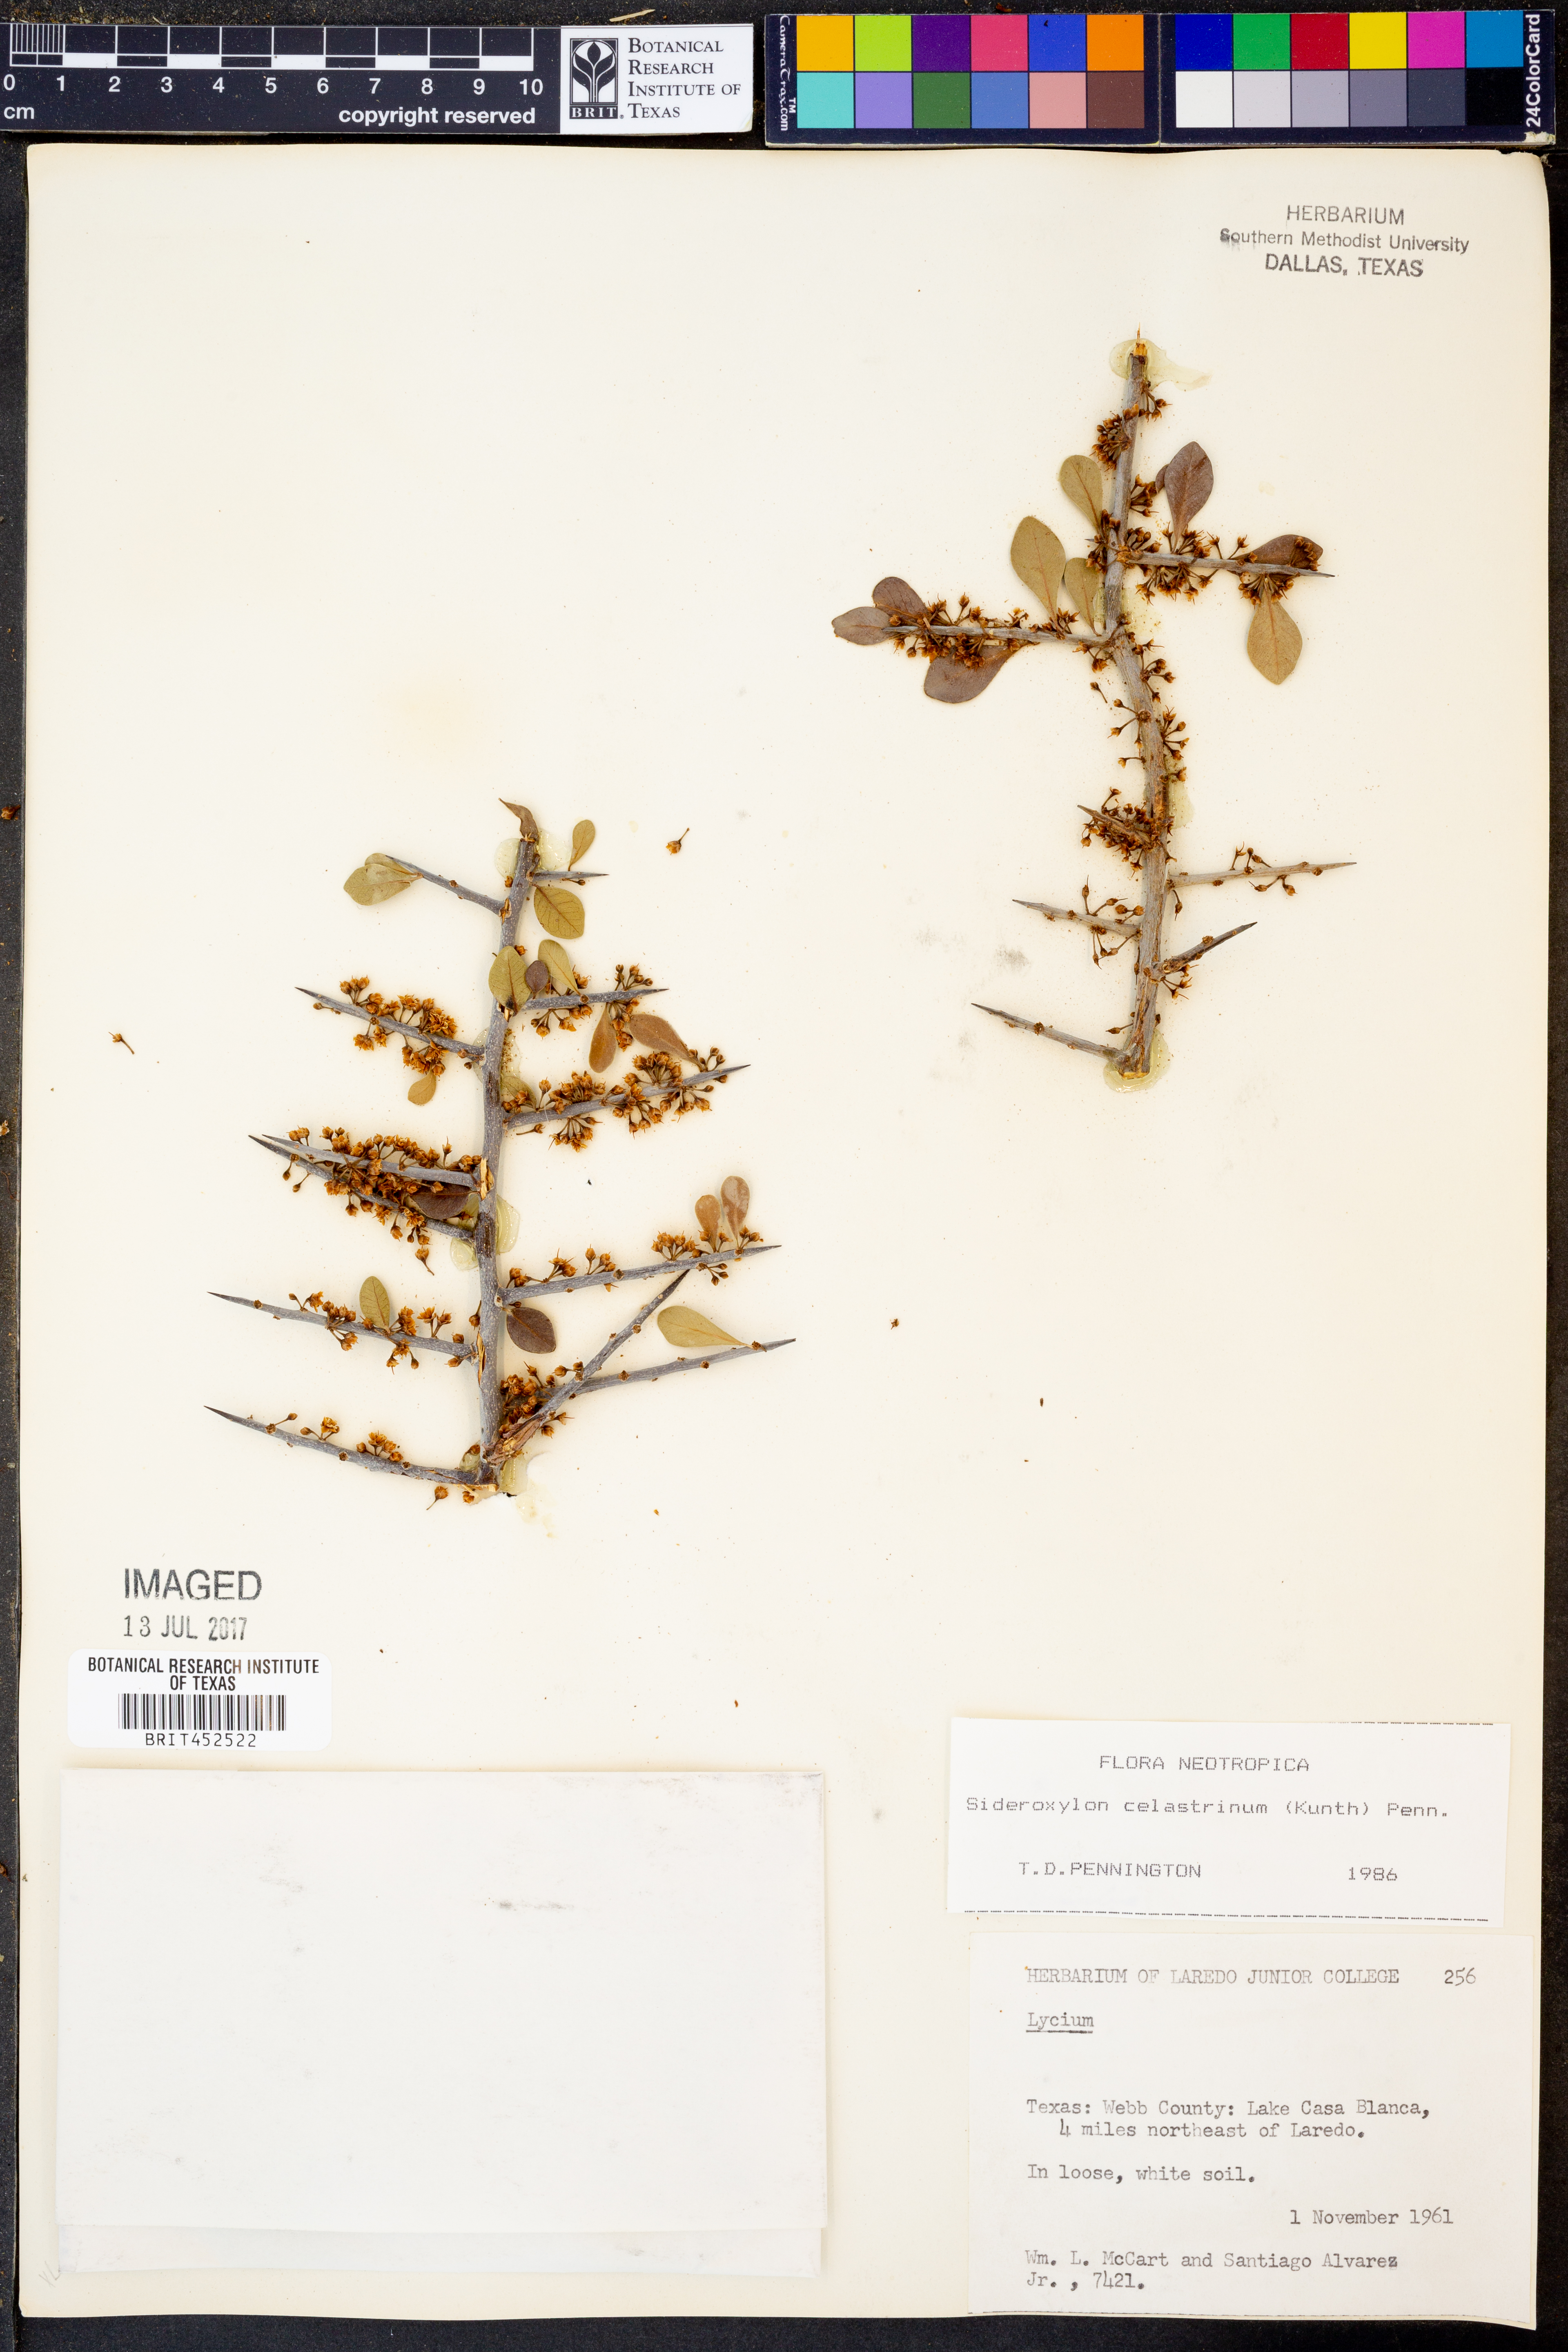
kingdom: Plantae
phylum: Tracheophyta
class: Magnoliopsida
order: Ericales
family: Sapotaceae
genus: Sideroxylon
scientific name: Sideroxylon celastrinum
